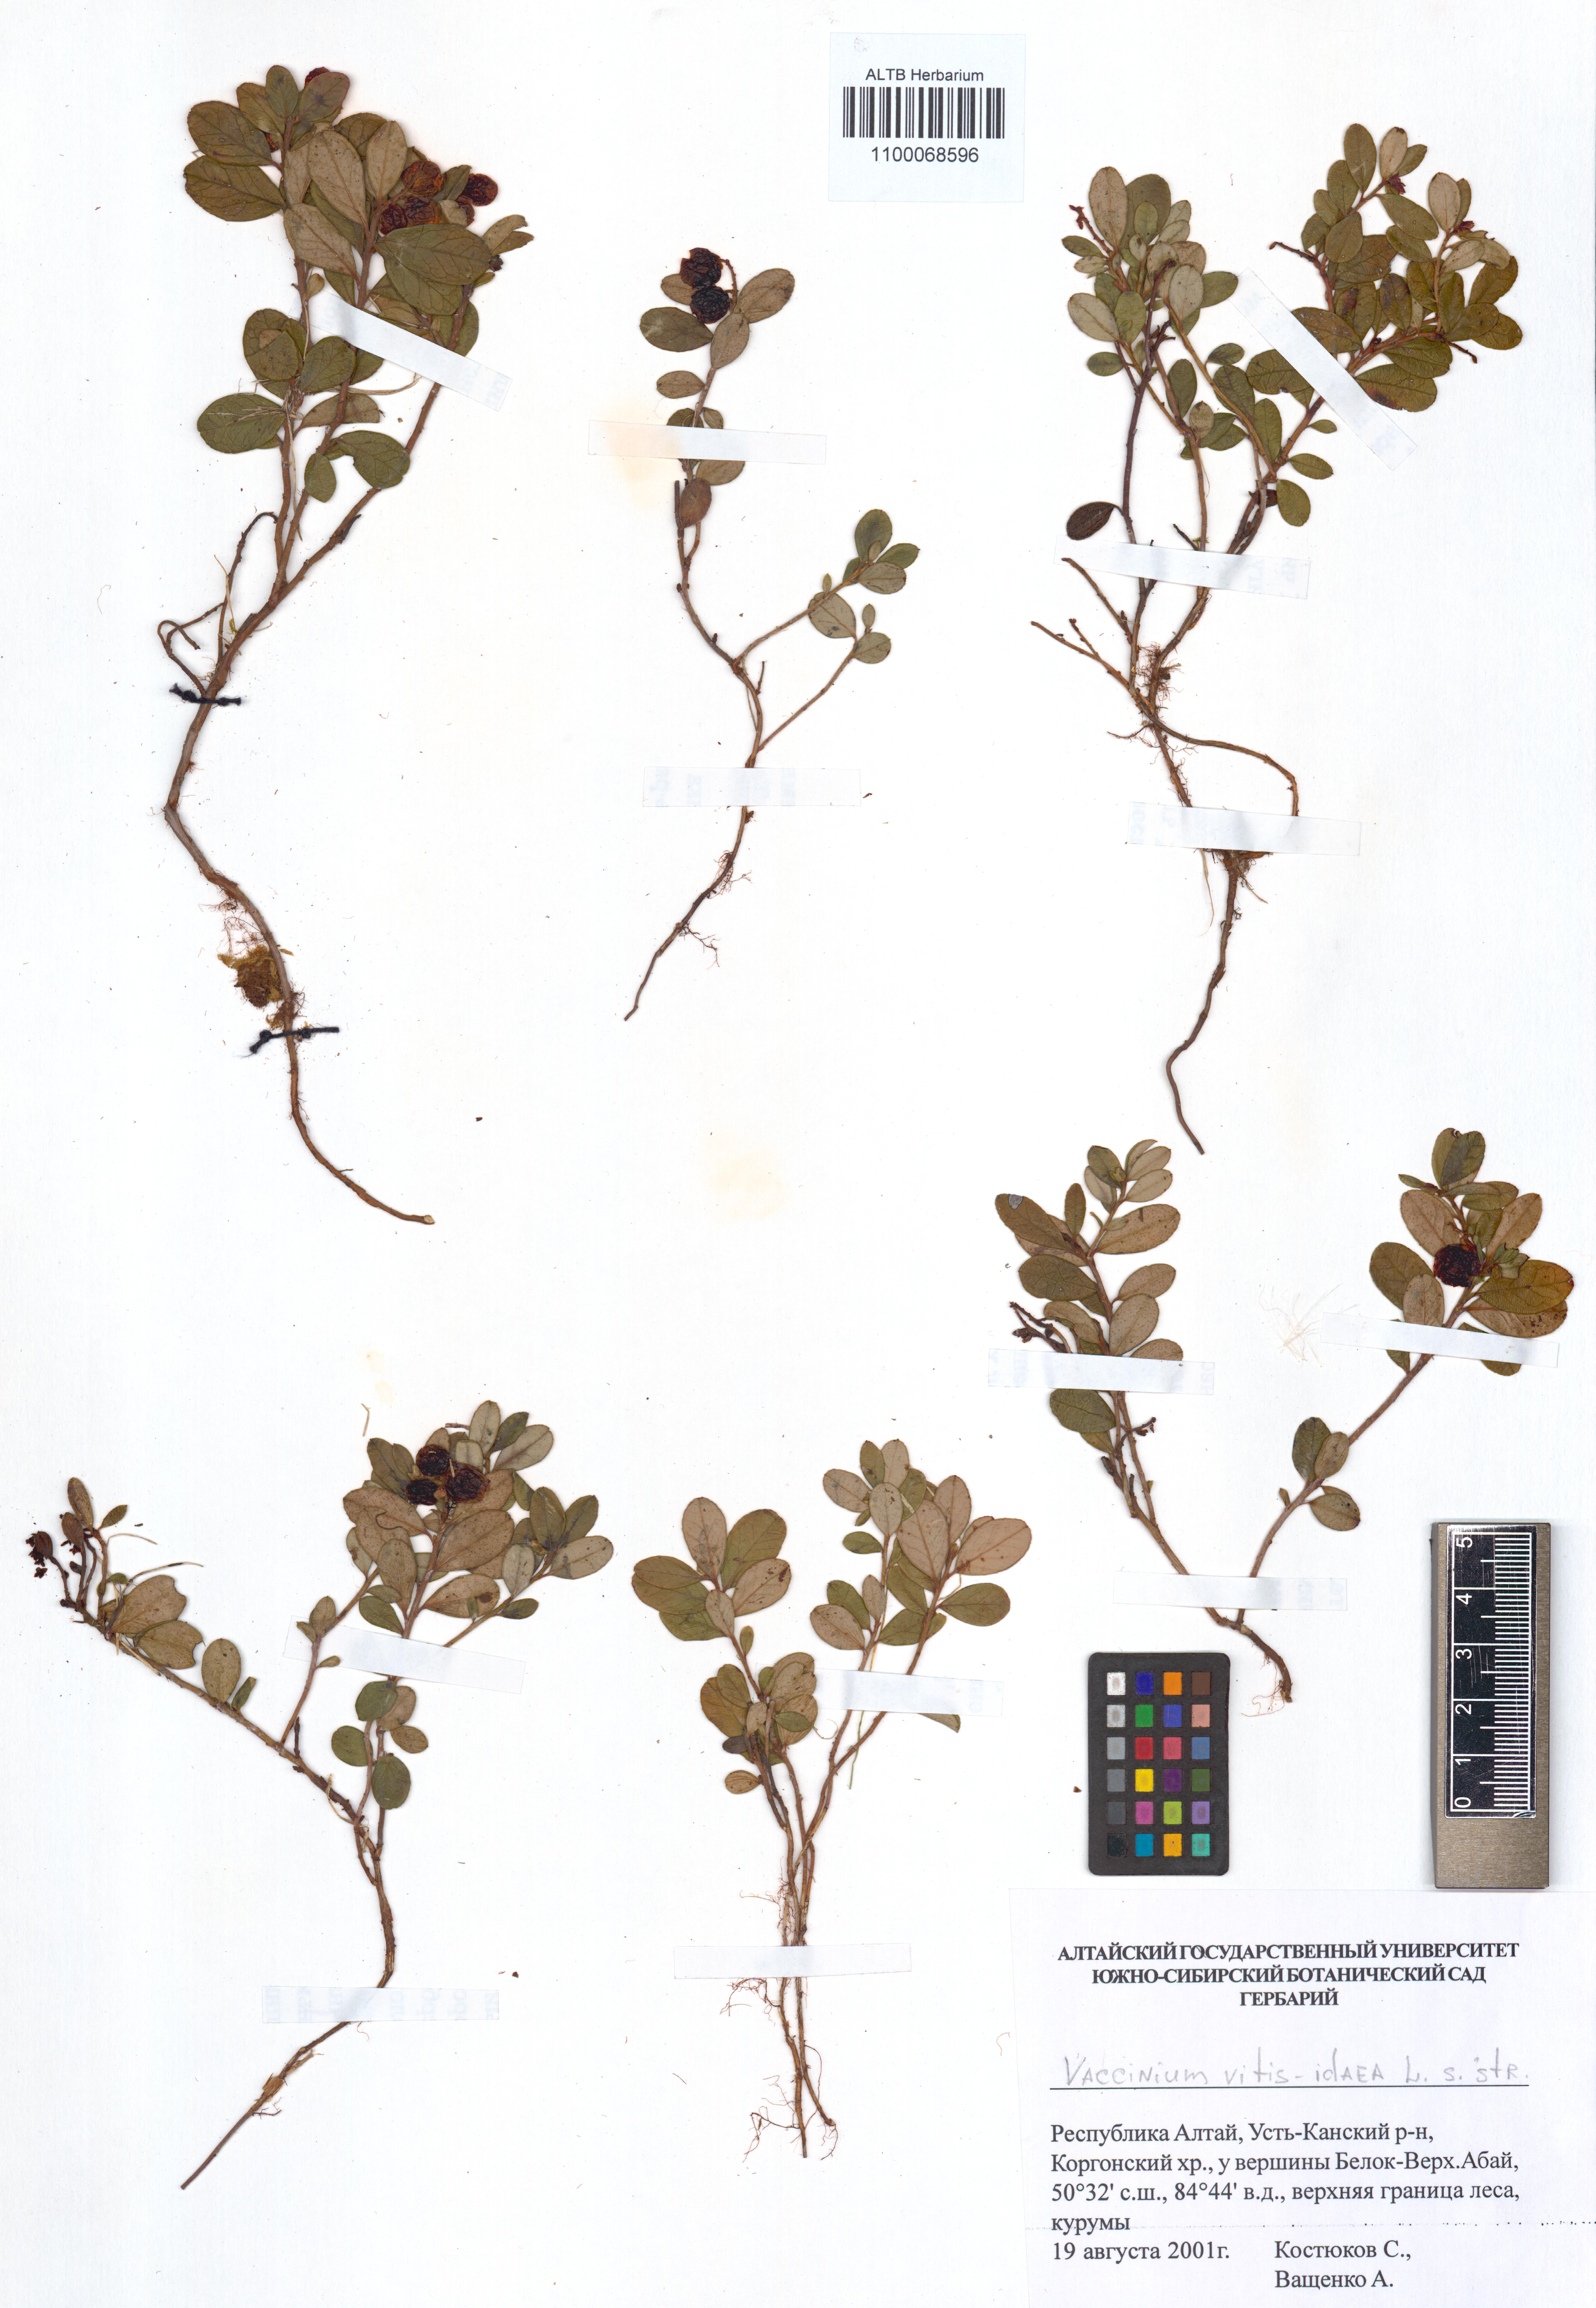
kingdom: Plantae
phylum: Tracheophyta
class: Magnoliopsida
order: Ericales
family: Ericaceae
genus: Vaccinium
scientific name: Vaccinium vitis-idaea
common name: Cowberry
